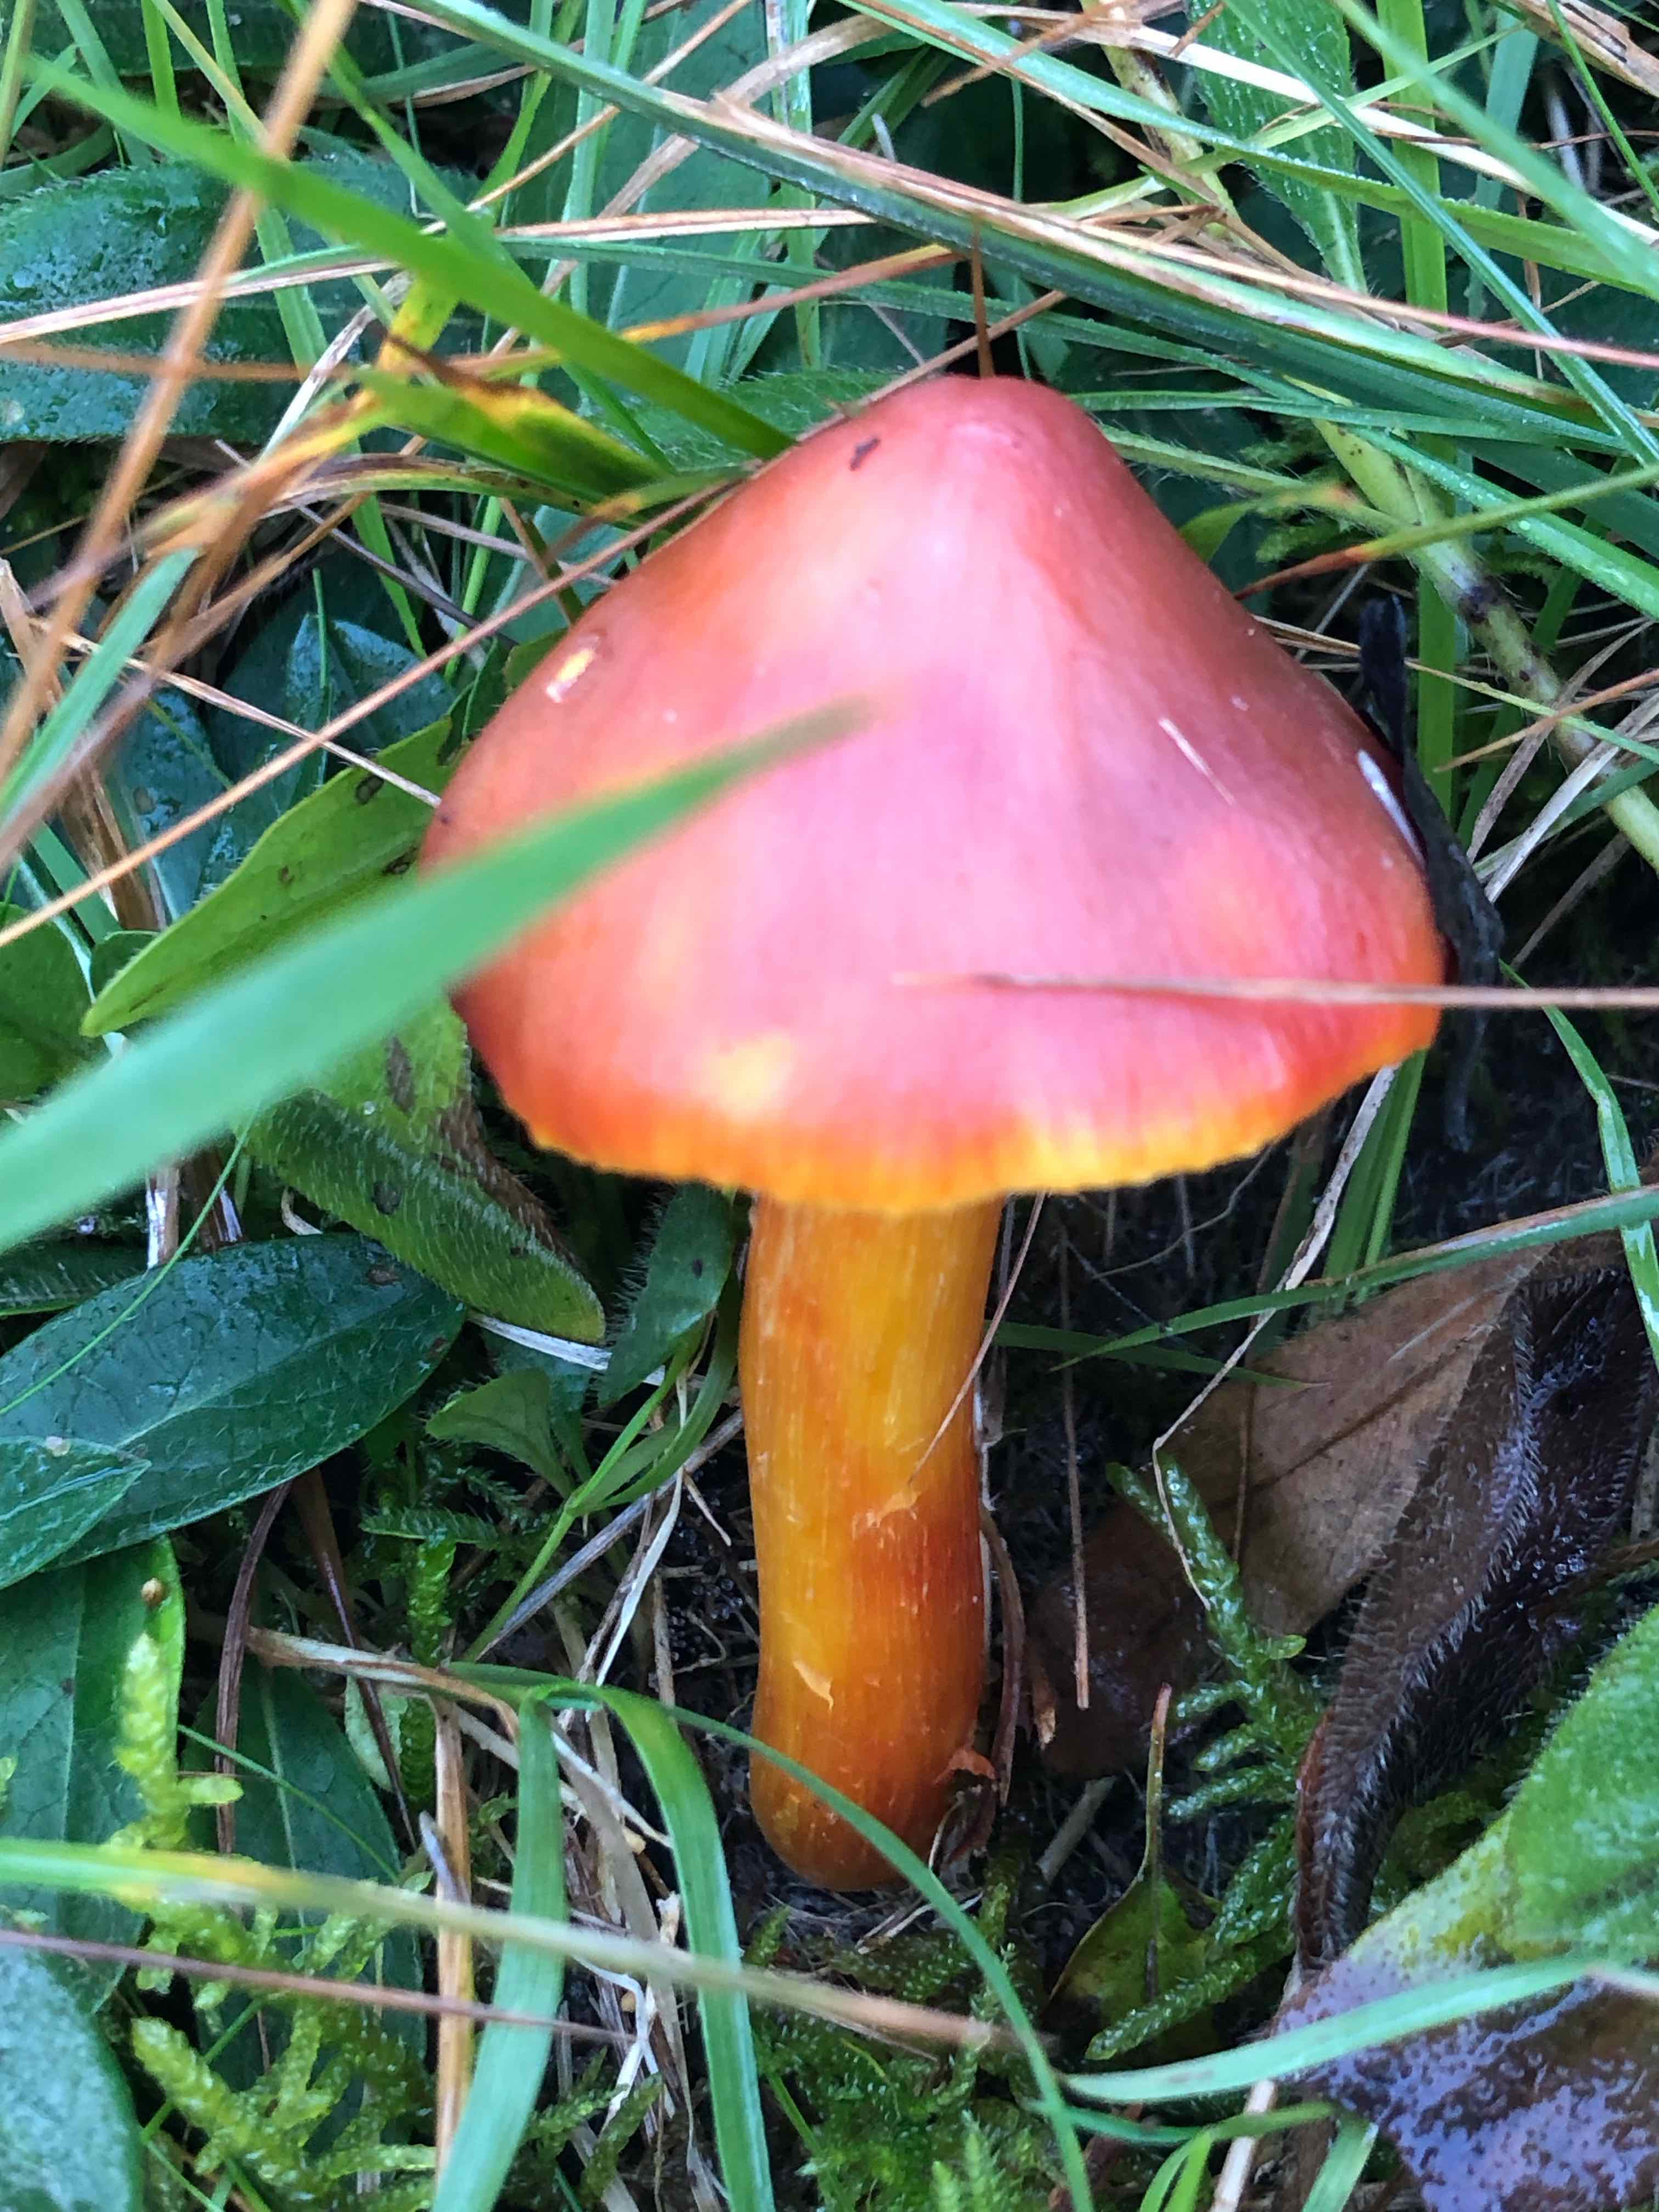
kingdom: Fungi
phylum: Basidiomycota
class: Agaricomycetes
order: Agaricales
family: Hygrophoraceae
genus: Hygrocybe
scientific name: Hygrocybe punicea
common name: skarlagen-vokshat
